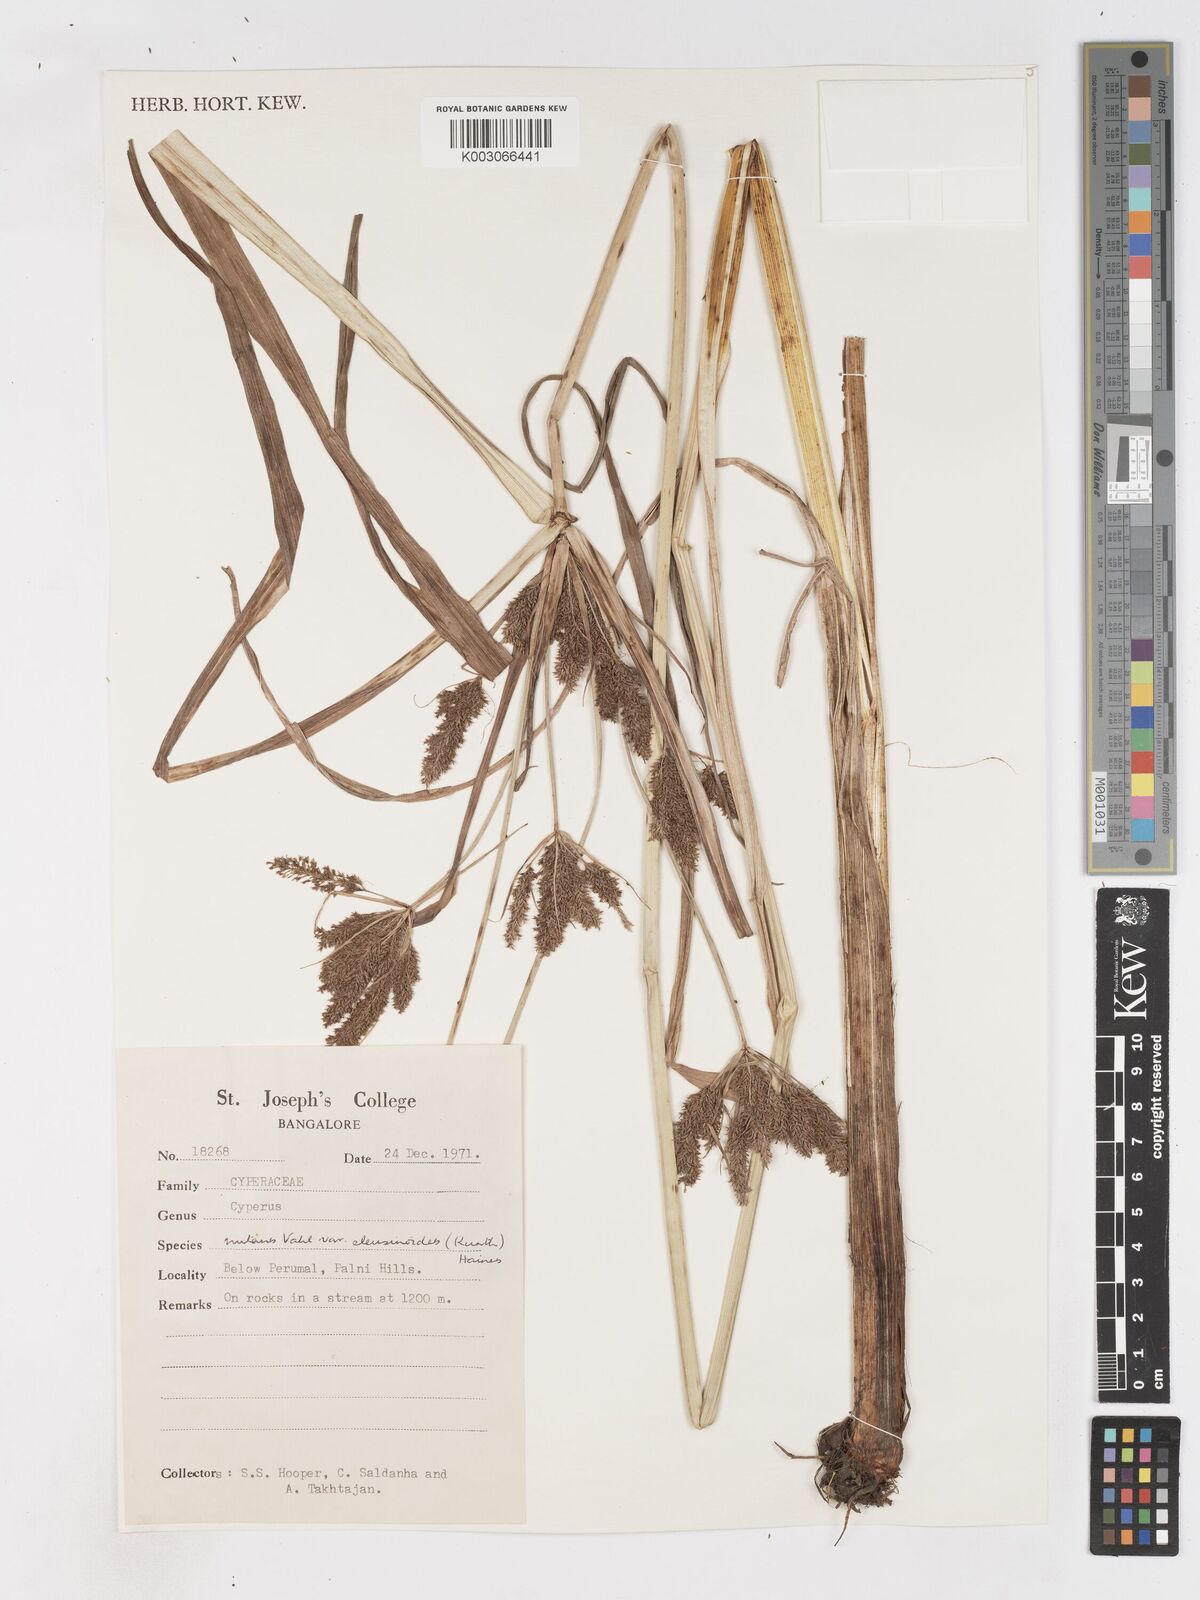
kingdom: Plantae
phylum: Tracheophyta
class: Liliopsida
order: Poales
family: Cyperaceae
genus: Cyperus
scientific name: Cyperus nutans
